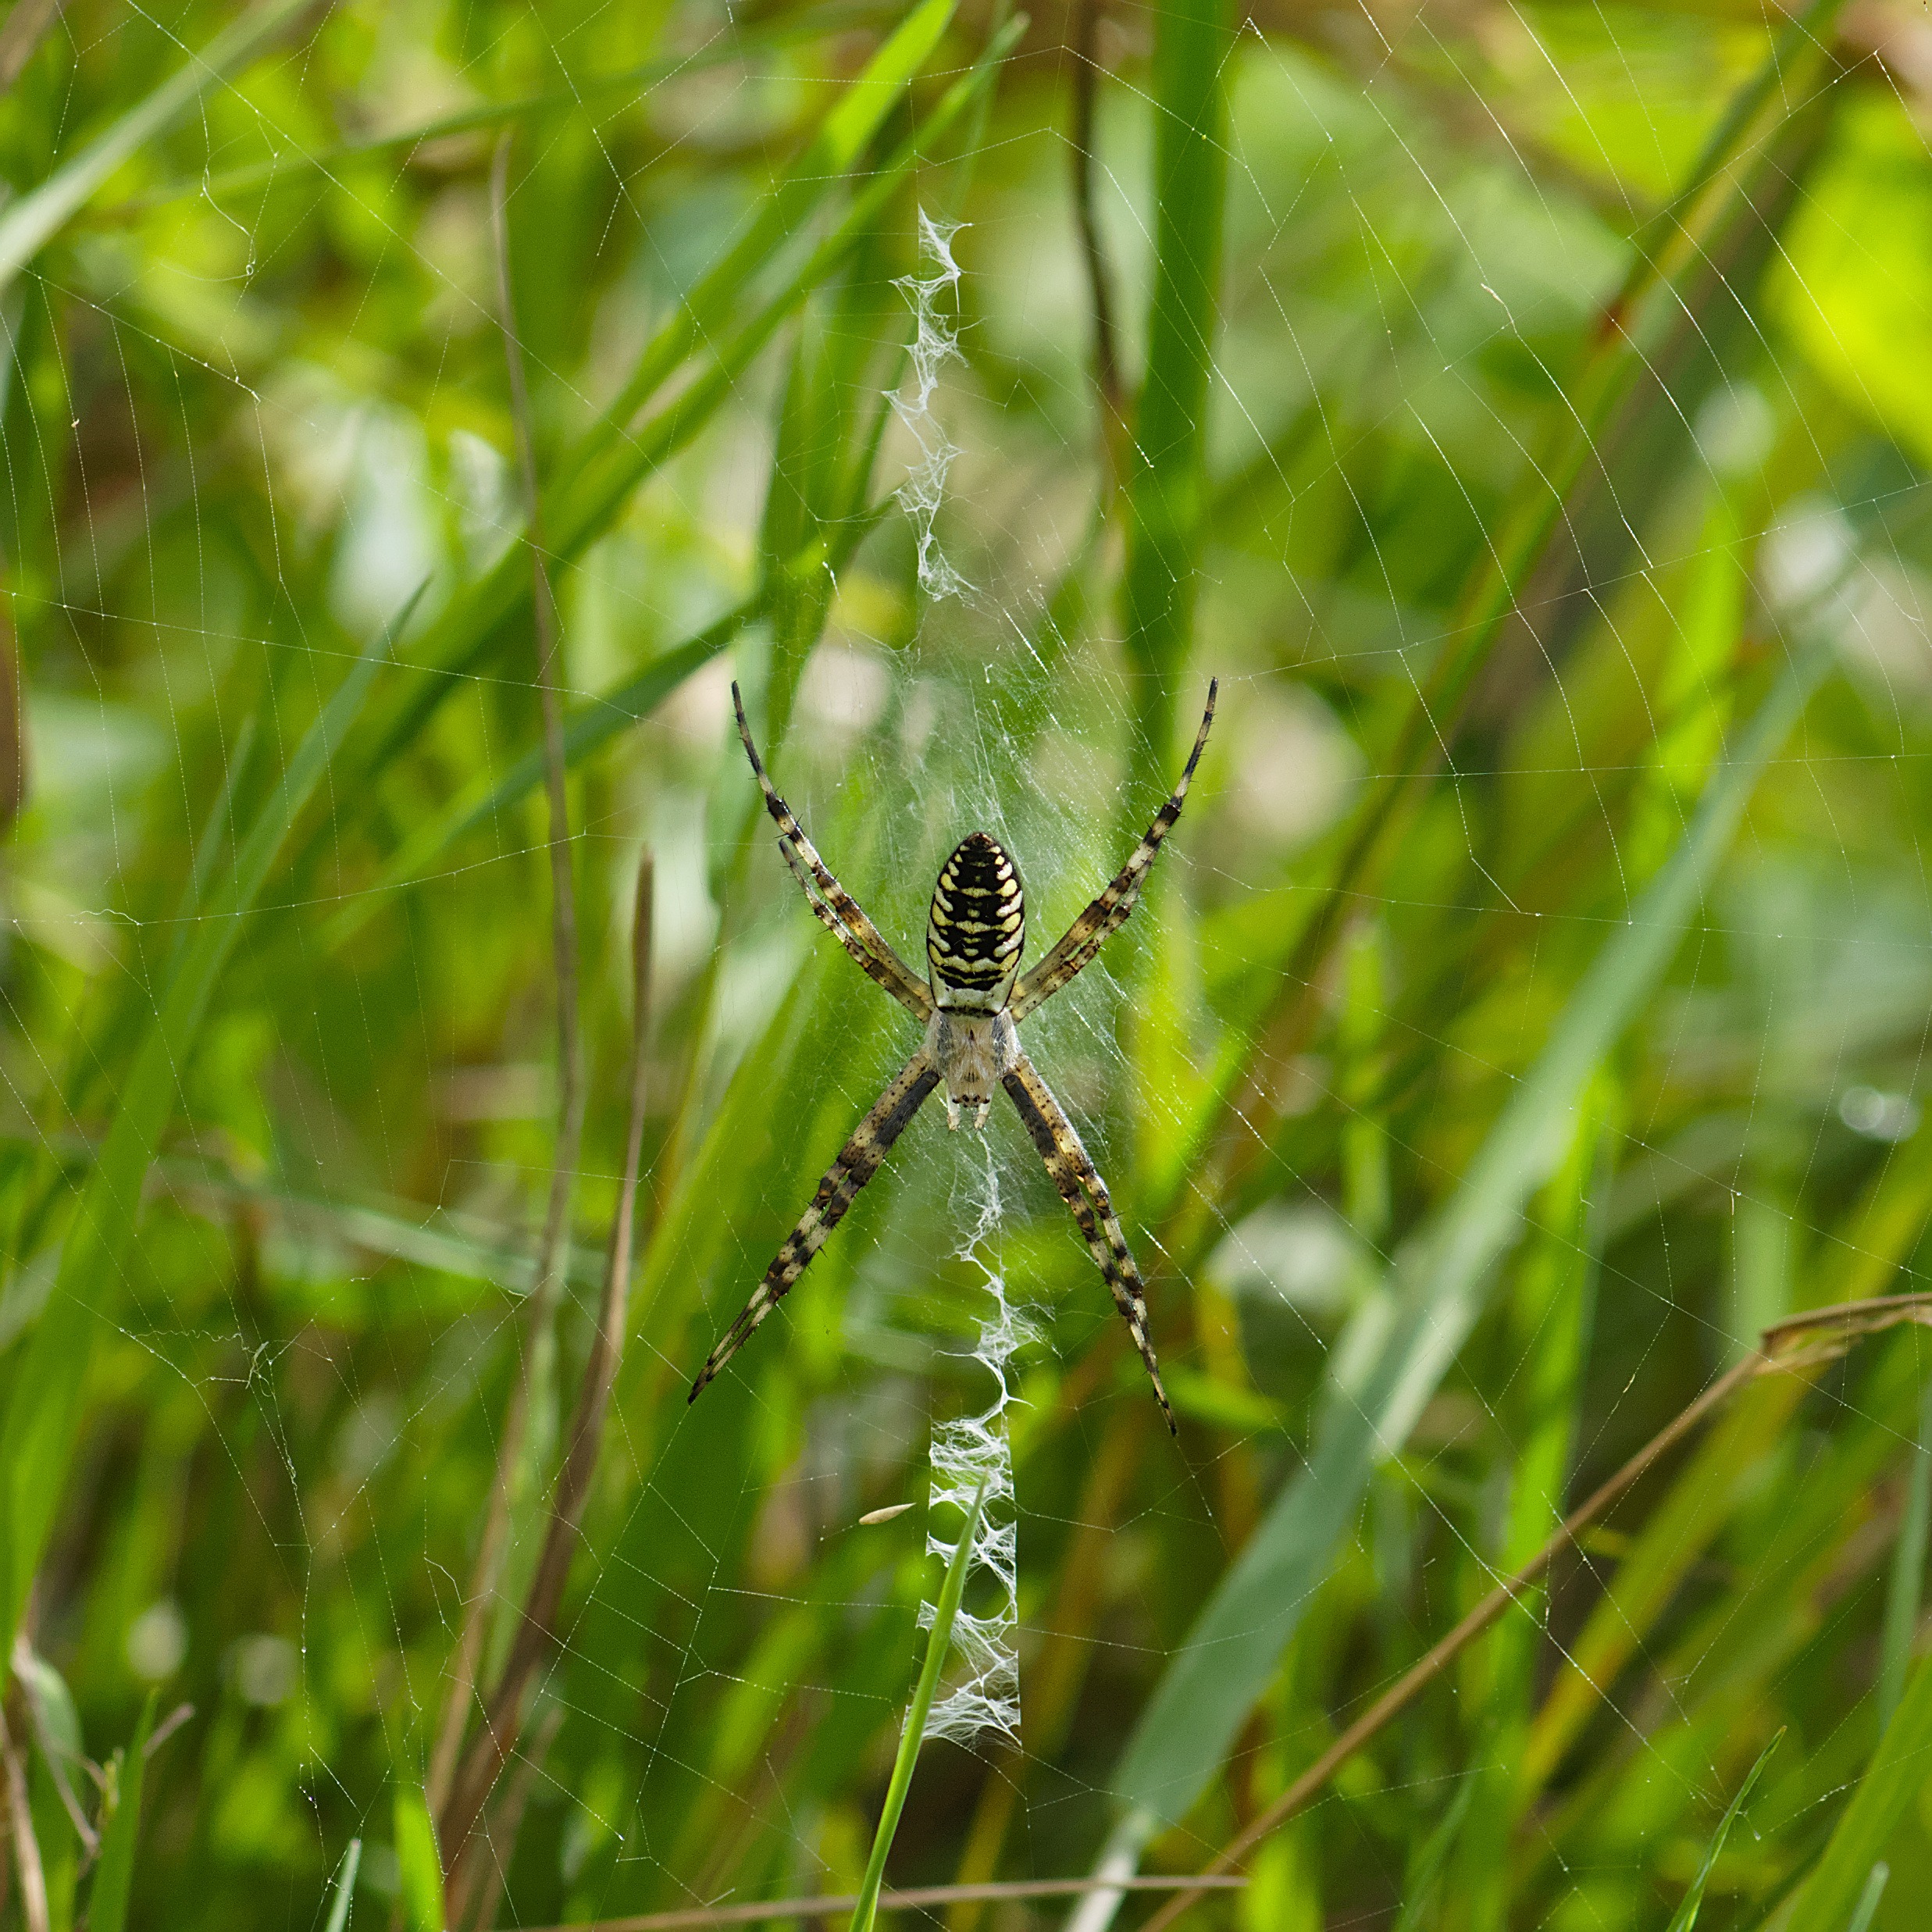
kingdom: Animalia
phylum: Arthropoda
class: Arachnida
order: Araneae
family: Araneidae
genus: Argiope
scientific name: Argiope bruennichi
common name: Hvepseedderkop
